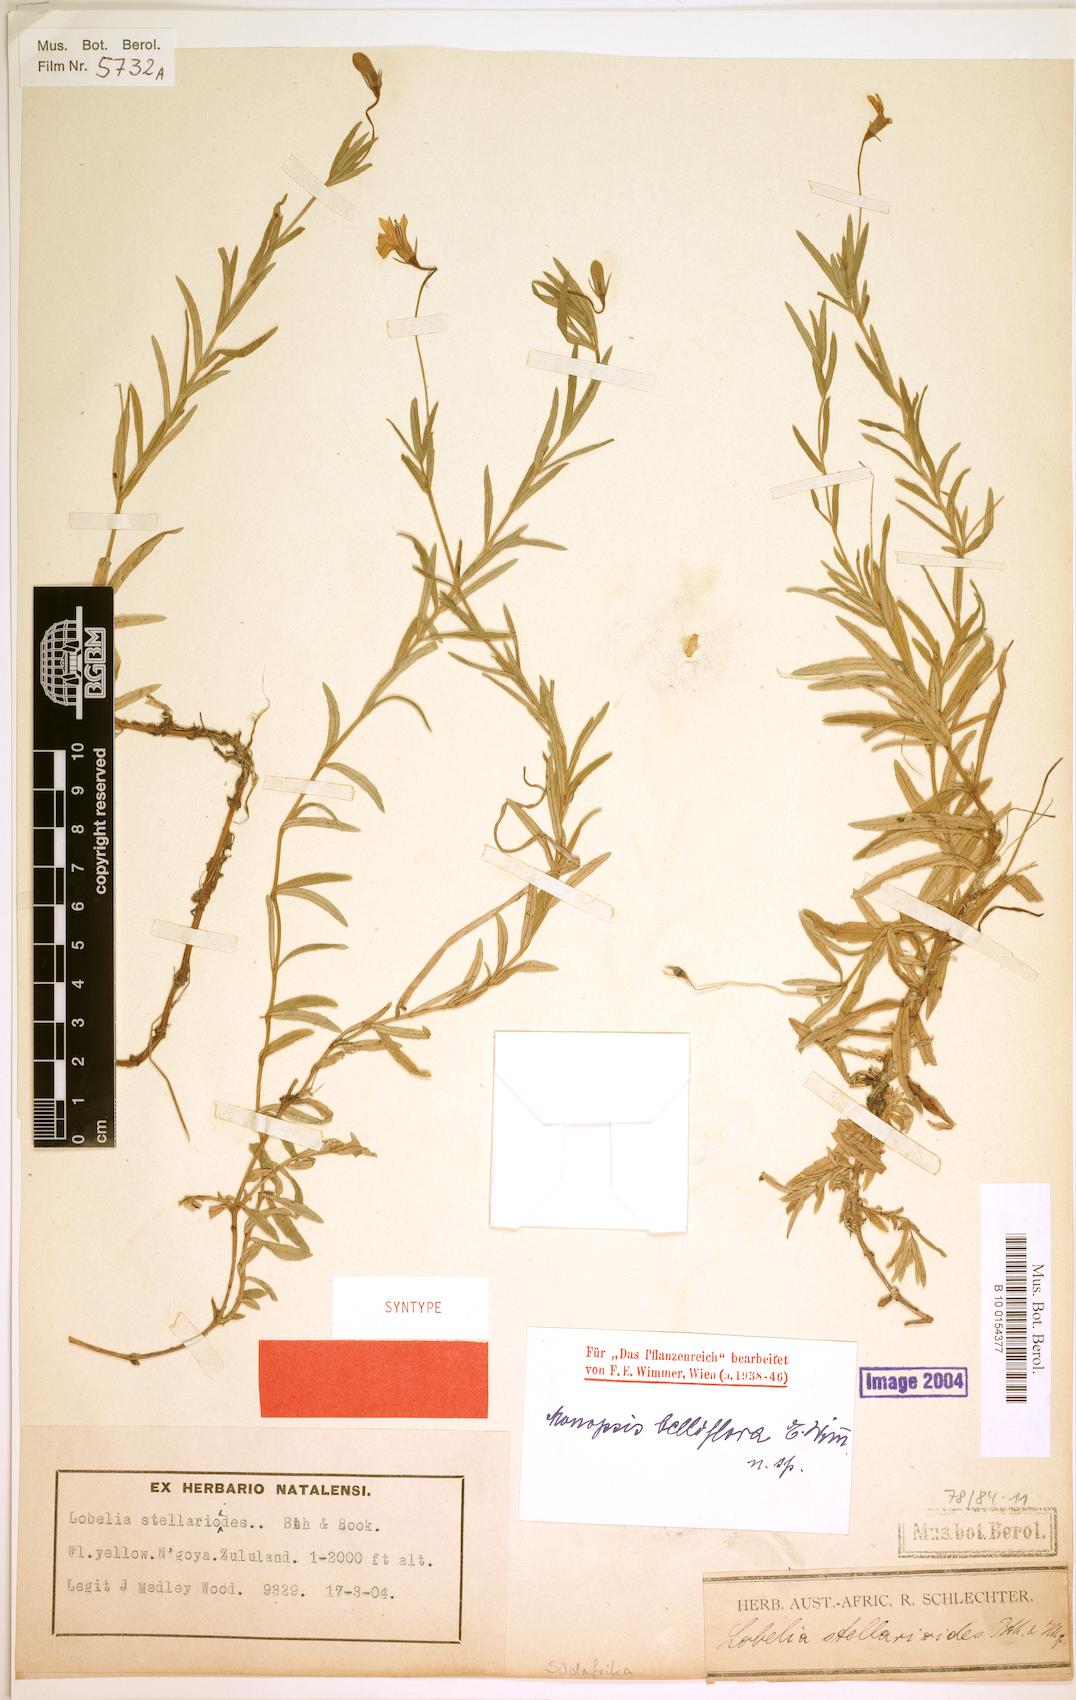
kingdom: Plantae
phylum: Tracheophyta
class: Magnoliopsida
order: Asterales
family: Campanulaceae
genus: Monopsis
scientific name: Monopsis belliflora
